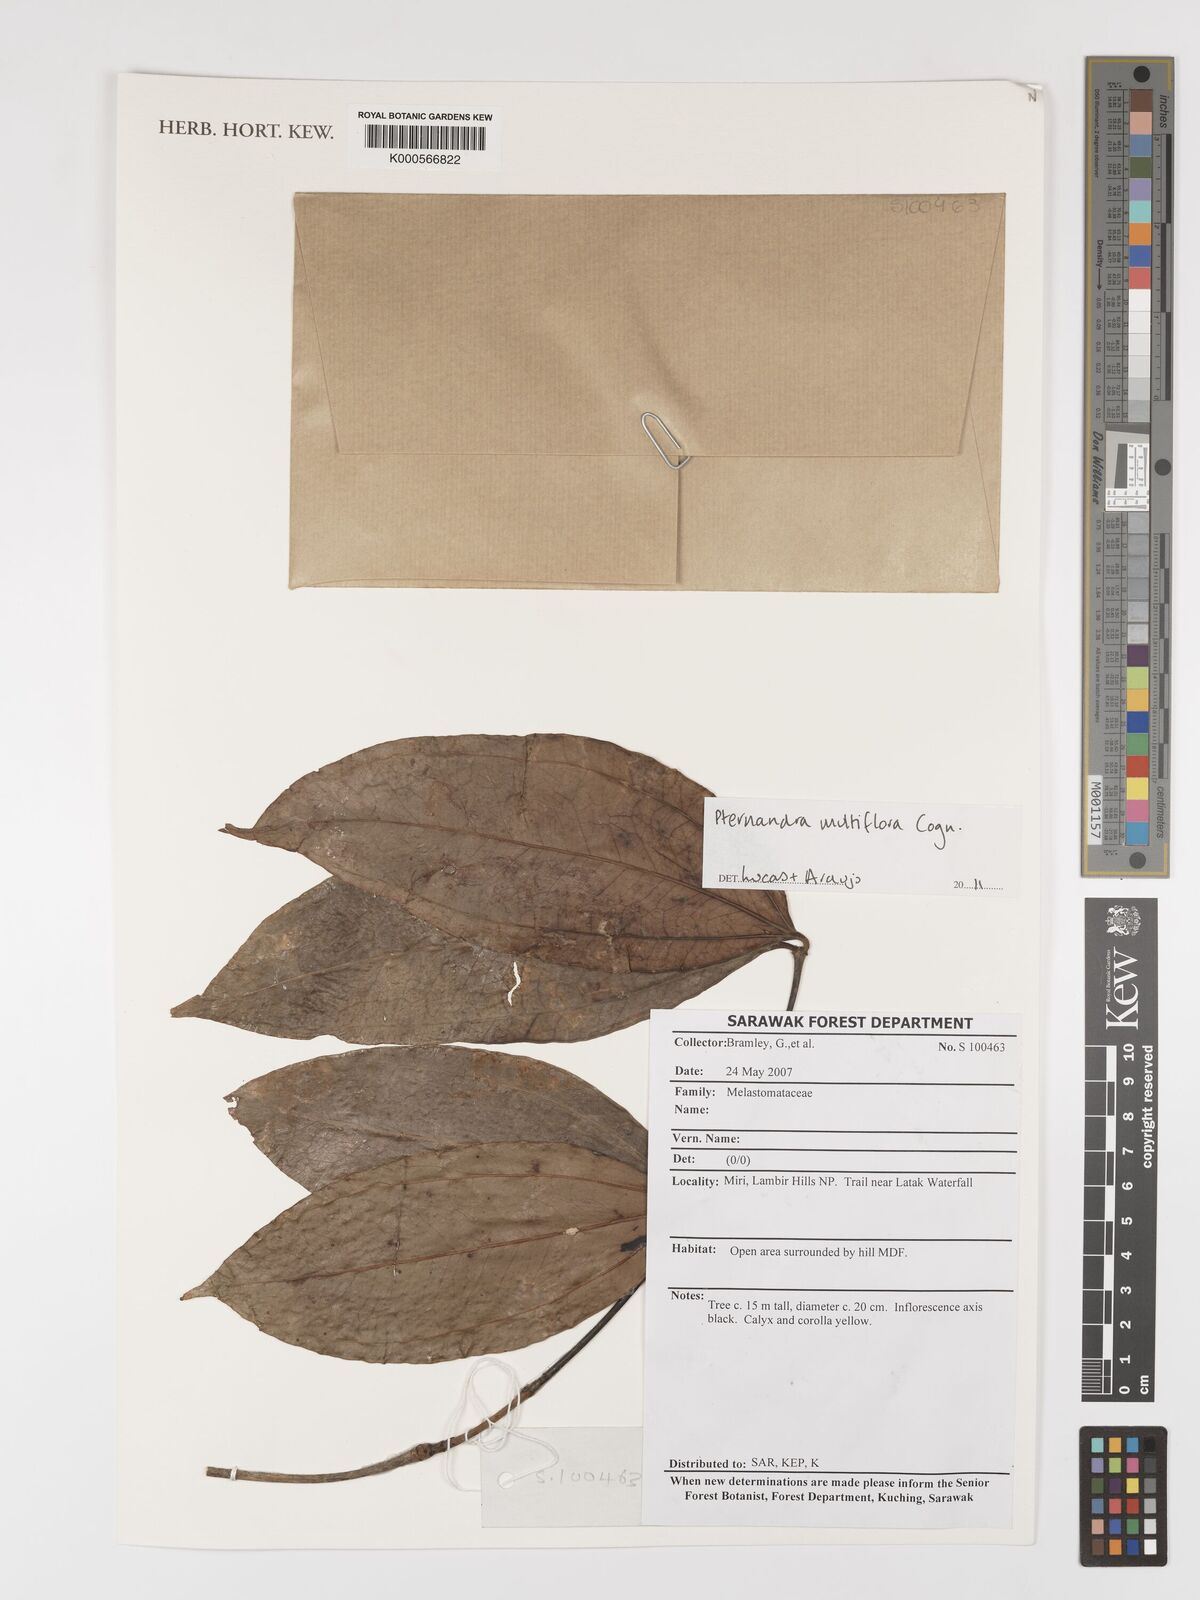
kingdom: Plantae
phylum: Tracheophyta
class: Magnoliopsida
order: Myrtales
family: Melastomataceae
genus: Pternandra
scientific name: Pternandra multiflora
